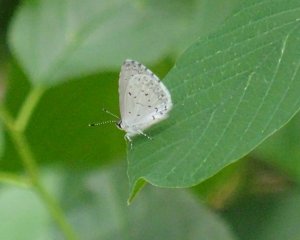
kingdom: Animalia
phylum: Arthropoda
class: Insecta
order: Lepidoptera
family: Lycaenidae
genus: Cyaniris
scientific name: Cyaniris neglecta
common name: Summer Azure
